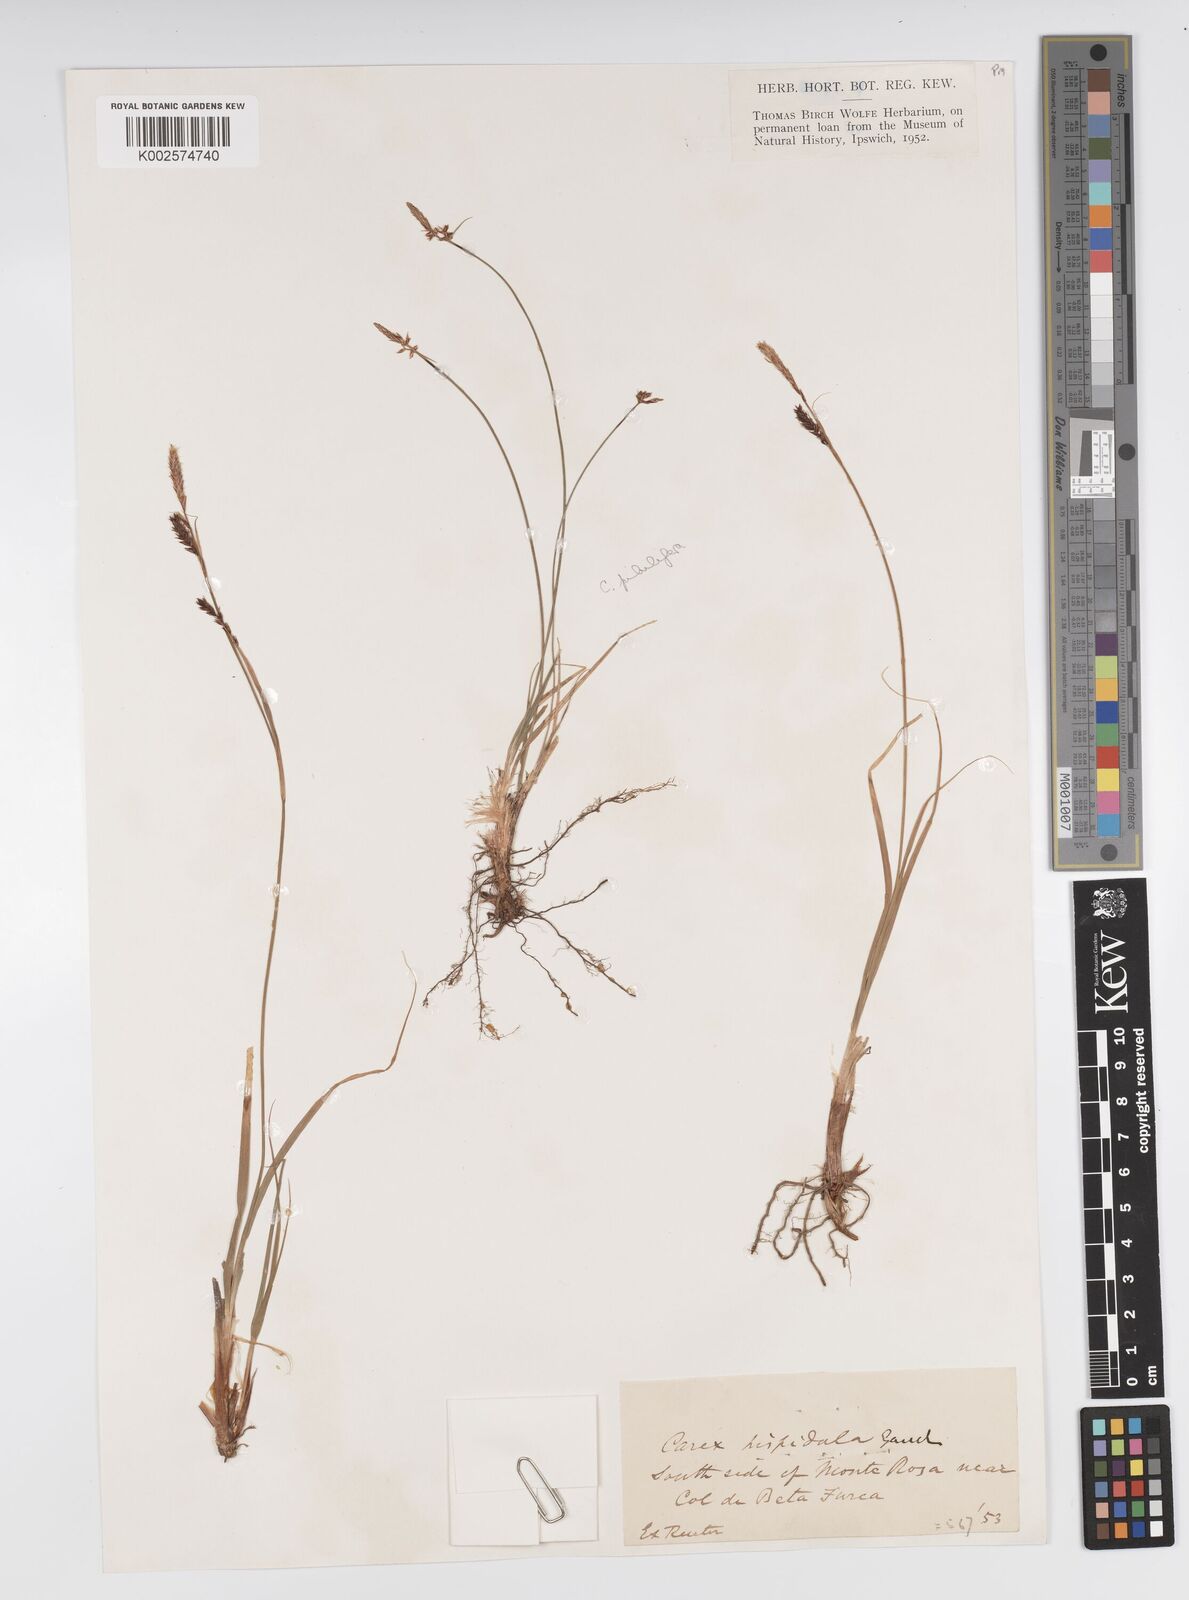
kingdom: Plantae
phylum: Tracheophyta
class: Liliopsida
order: Poales
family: Cyperaceae
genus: Carex
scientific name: Carex fimbriata
